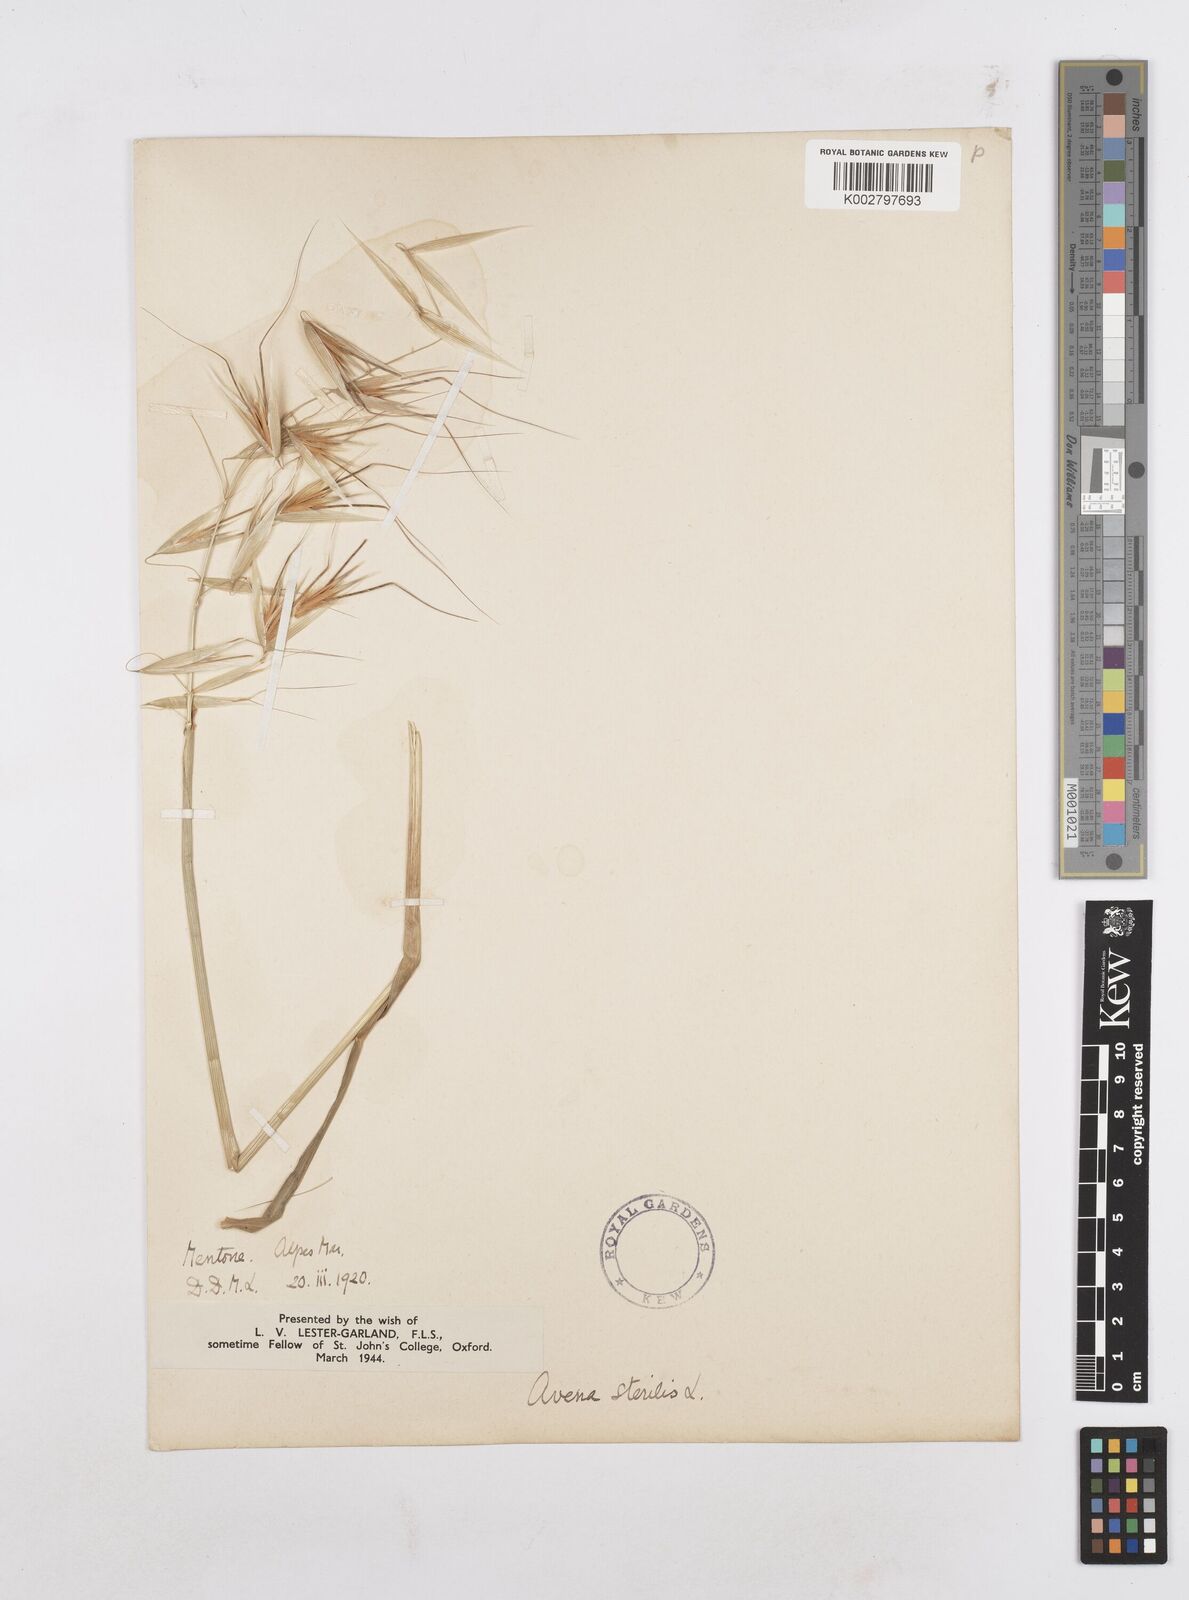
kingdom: Plantae
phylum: Tracheophyta
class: Liliopsida
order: Poales
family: Poaceae
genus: Avena
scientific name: Avena sterilis
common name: Animated oat
